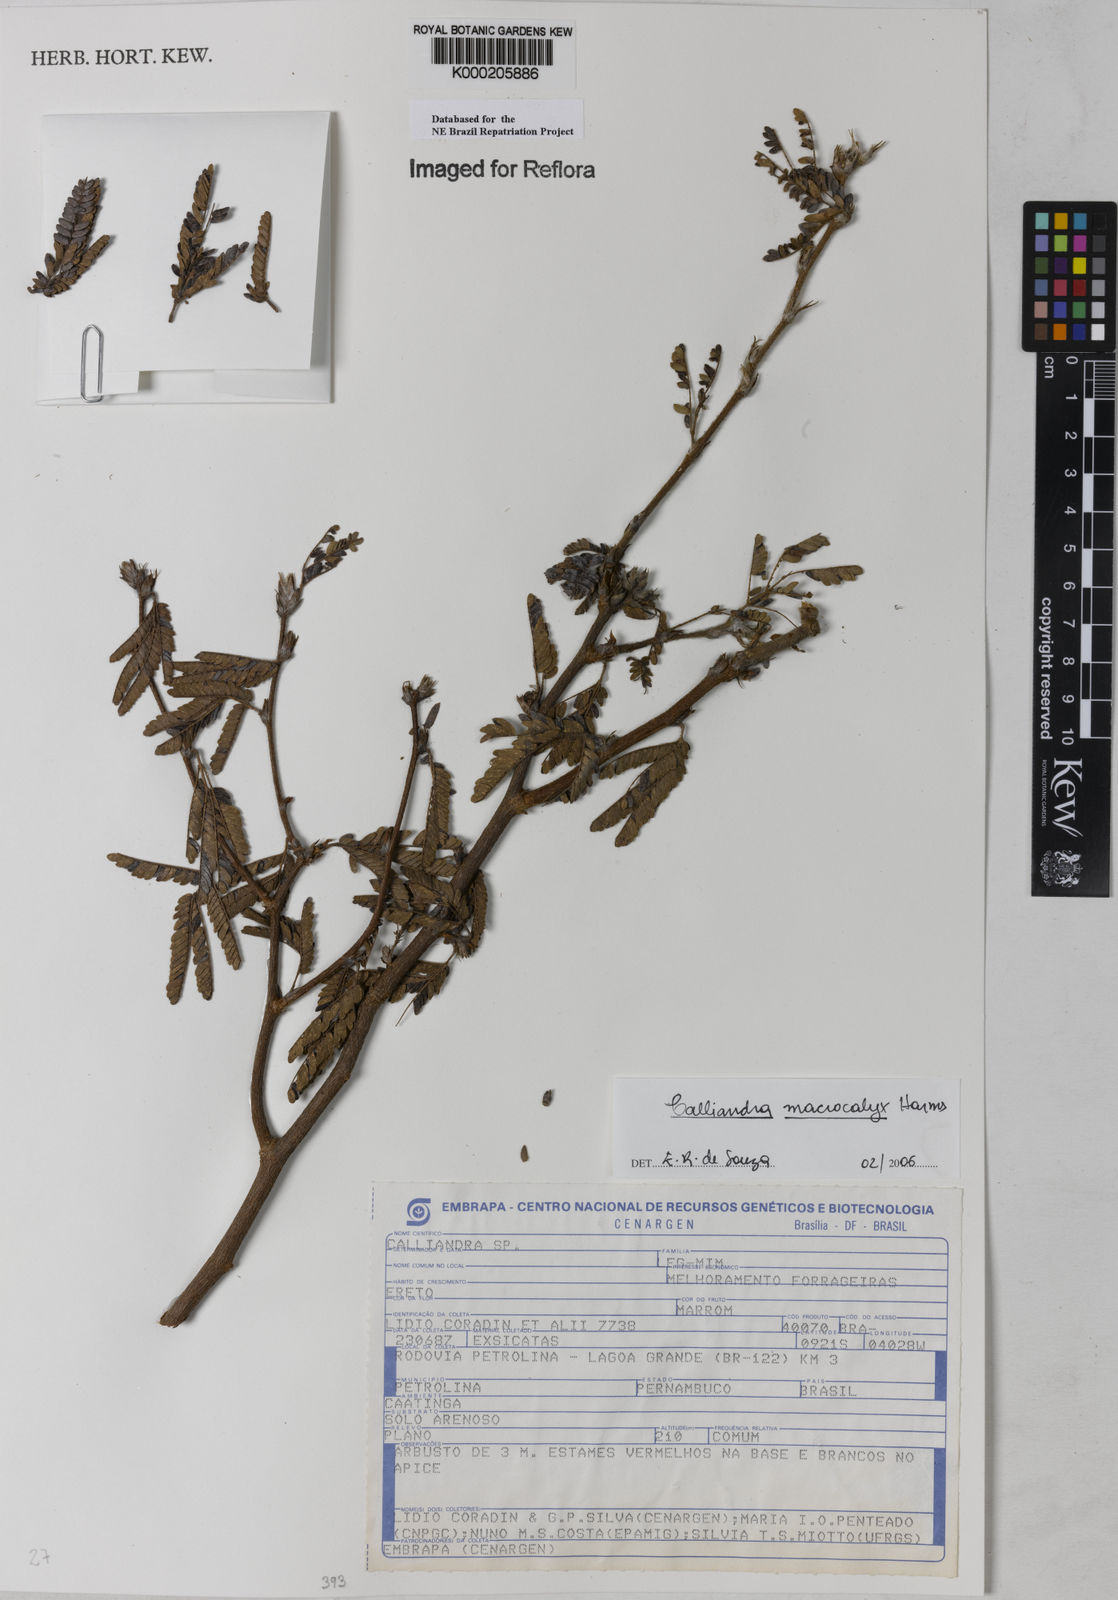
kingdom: Plantae
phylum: Tracheophyta
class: Magnoliopsida
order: Fabales
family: Fabaceae
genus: Calliandra
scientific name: Calliandra
